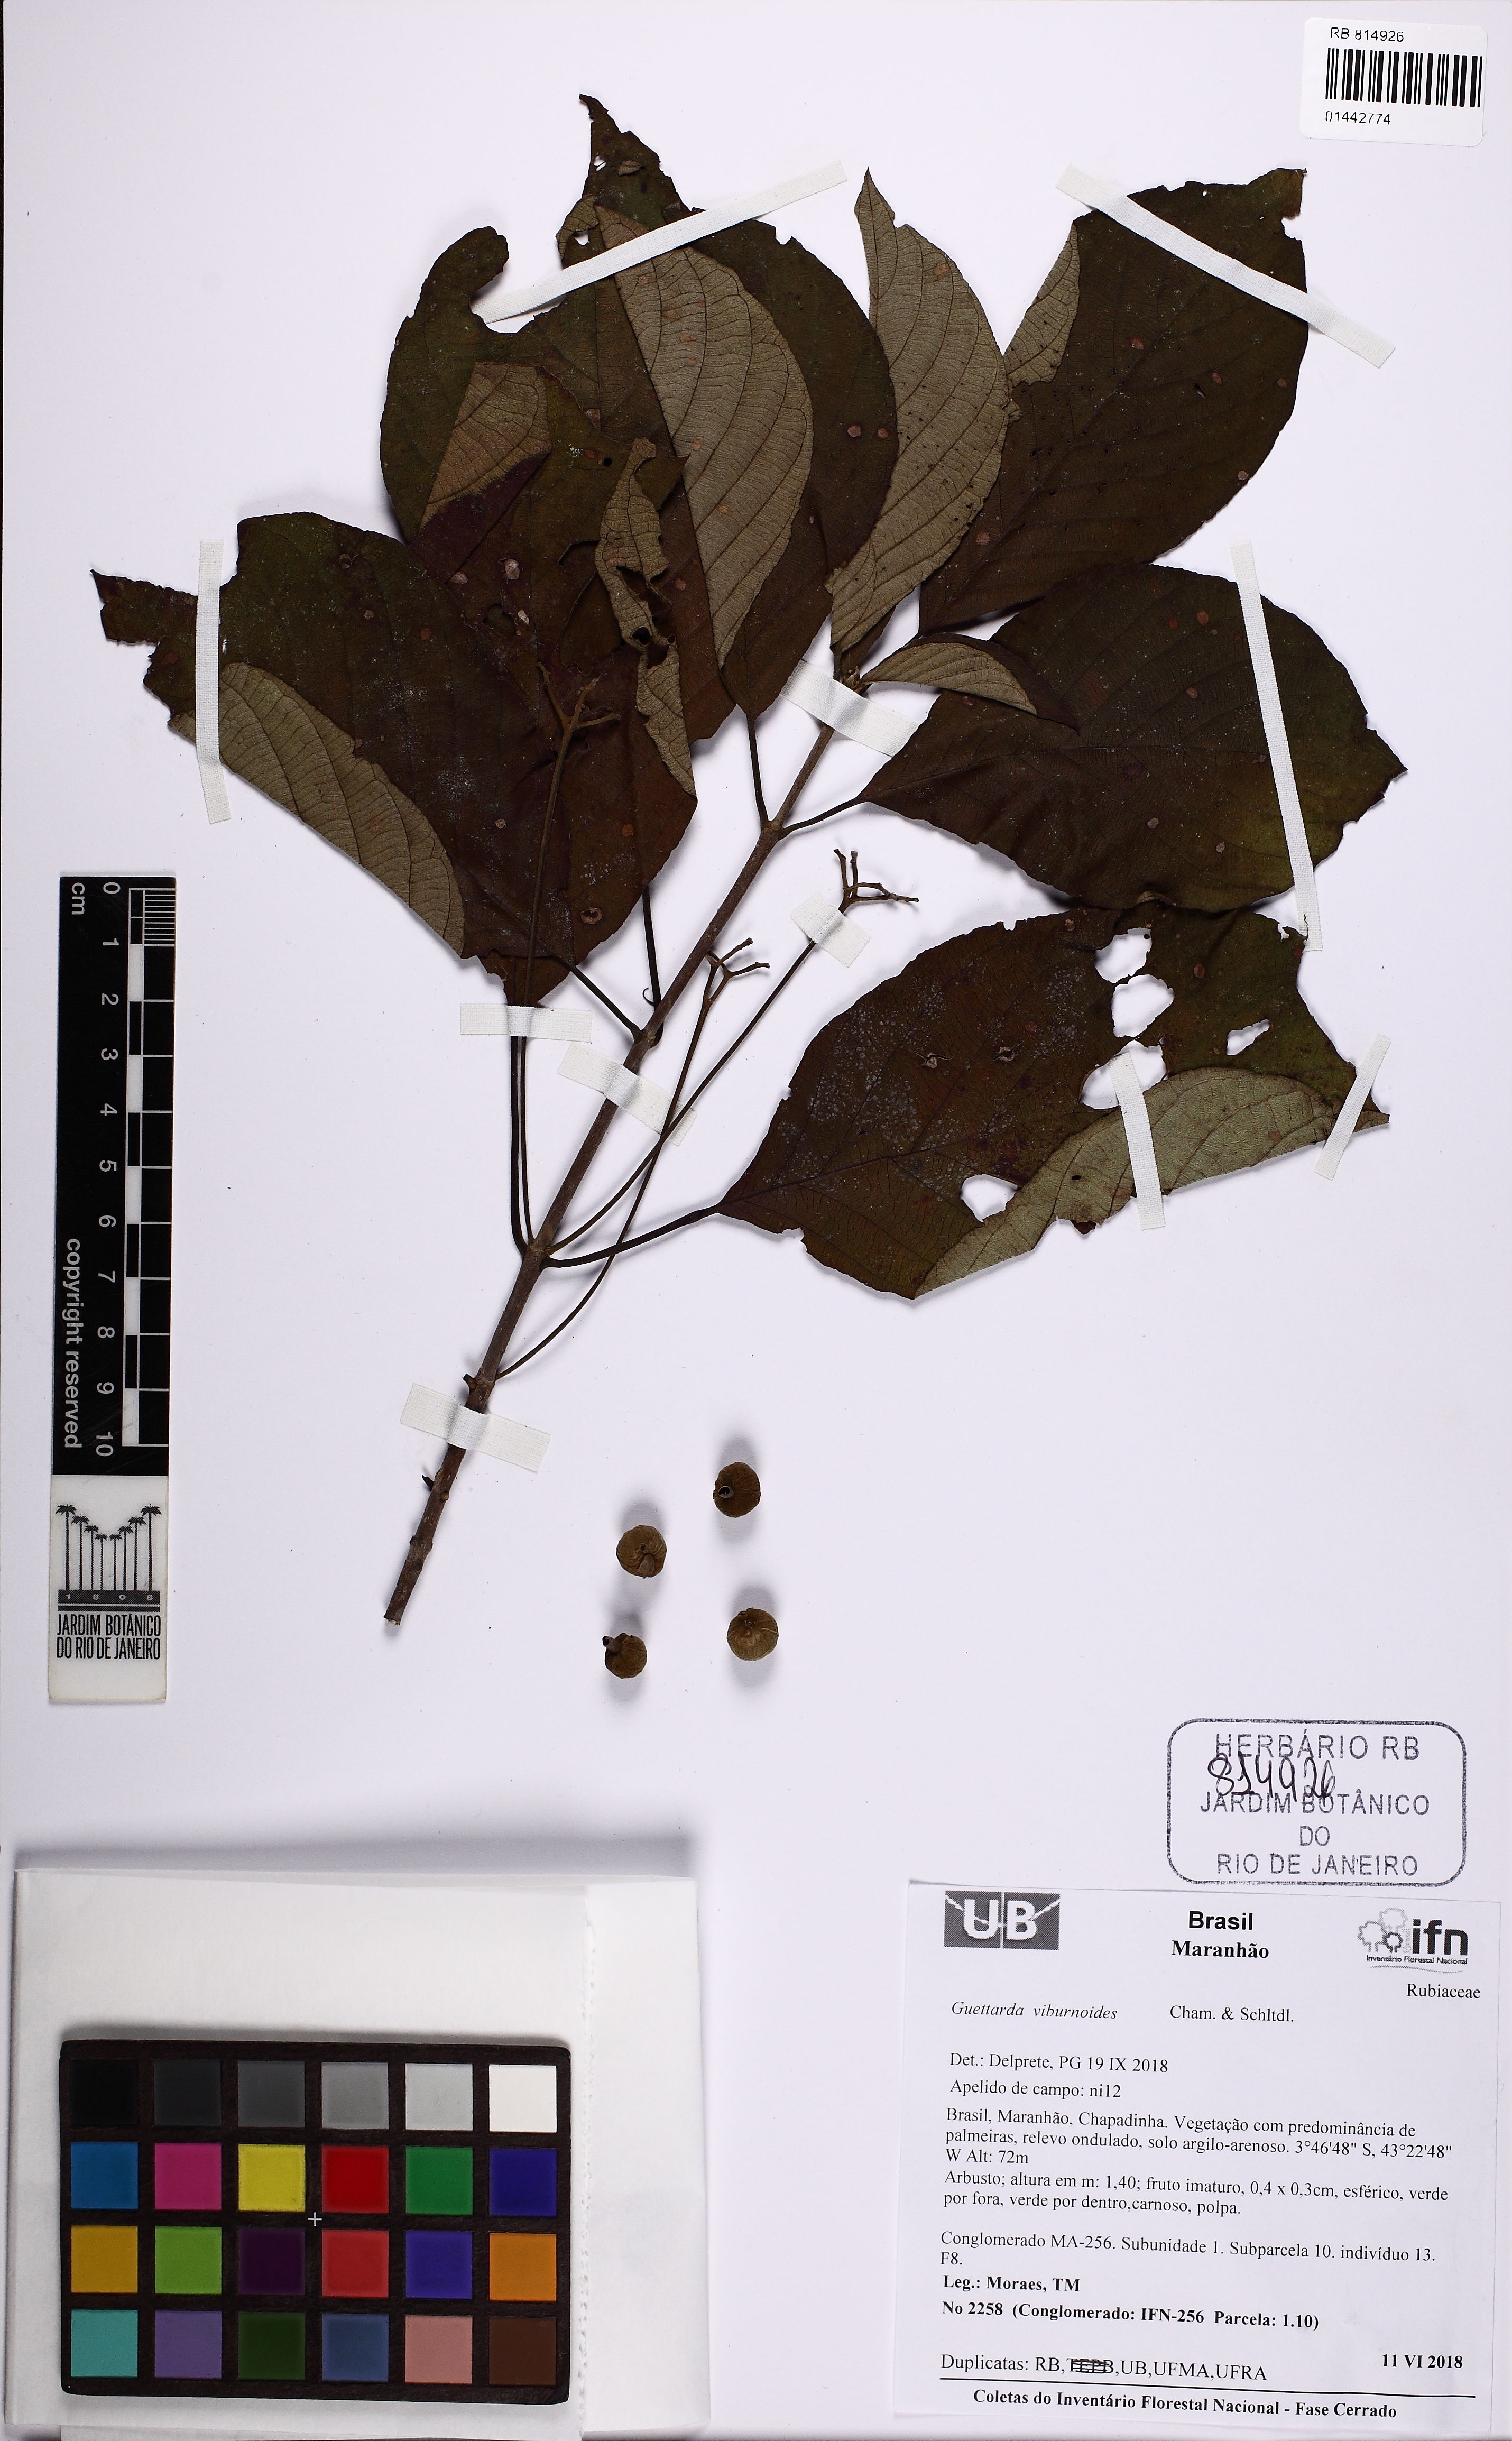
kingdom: Plantae
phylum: Tracheophyta
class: Magnoliopsida
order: Gentianales
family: Rubiaceae
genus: Guettarda
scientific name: Guettarda viburnoides
